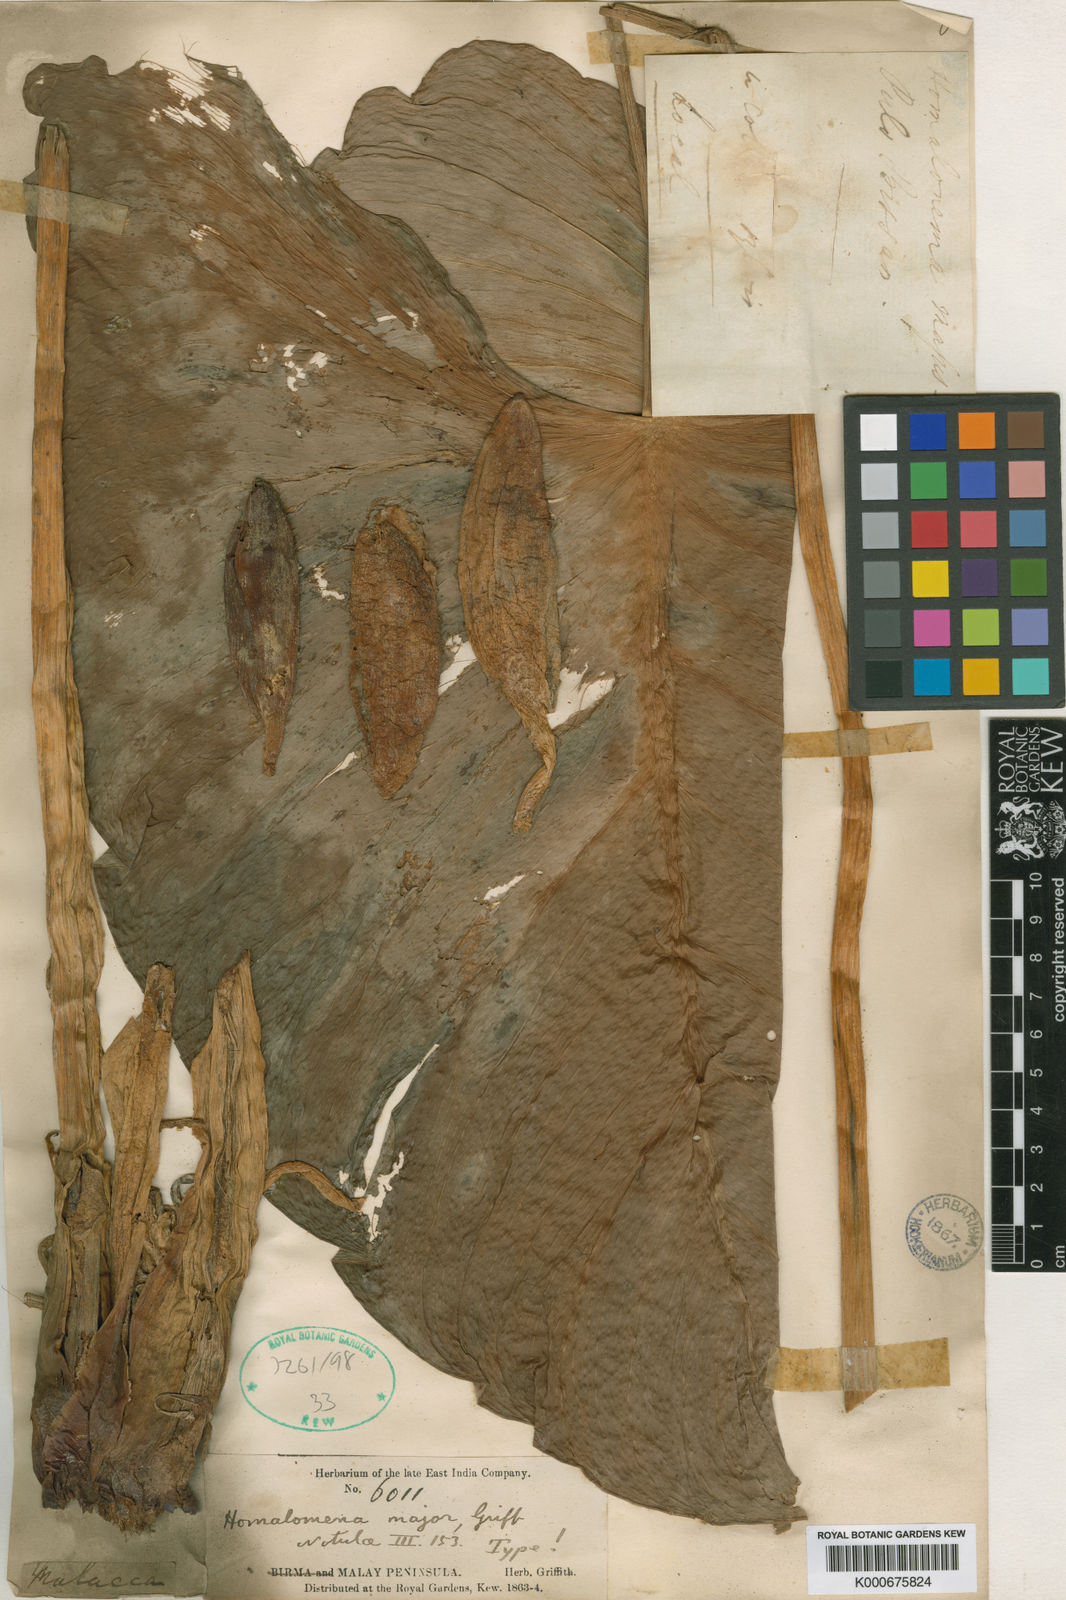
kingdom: Plantae
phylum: Tracheophyta
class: Liliopsida
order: Alismatales
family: Araceae
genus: Homalomena
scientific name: Homalomena major
